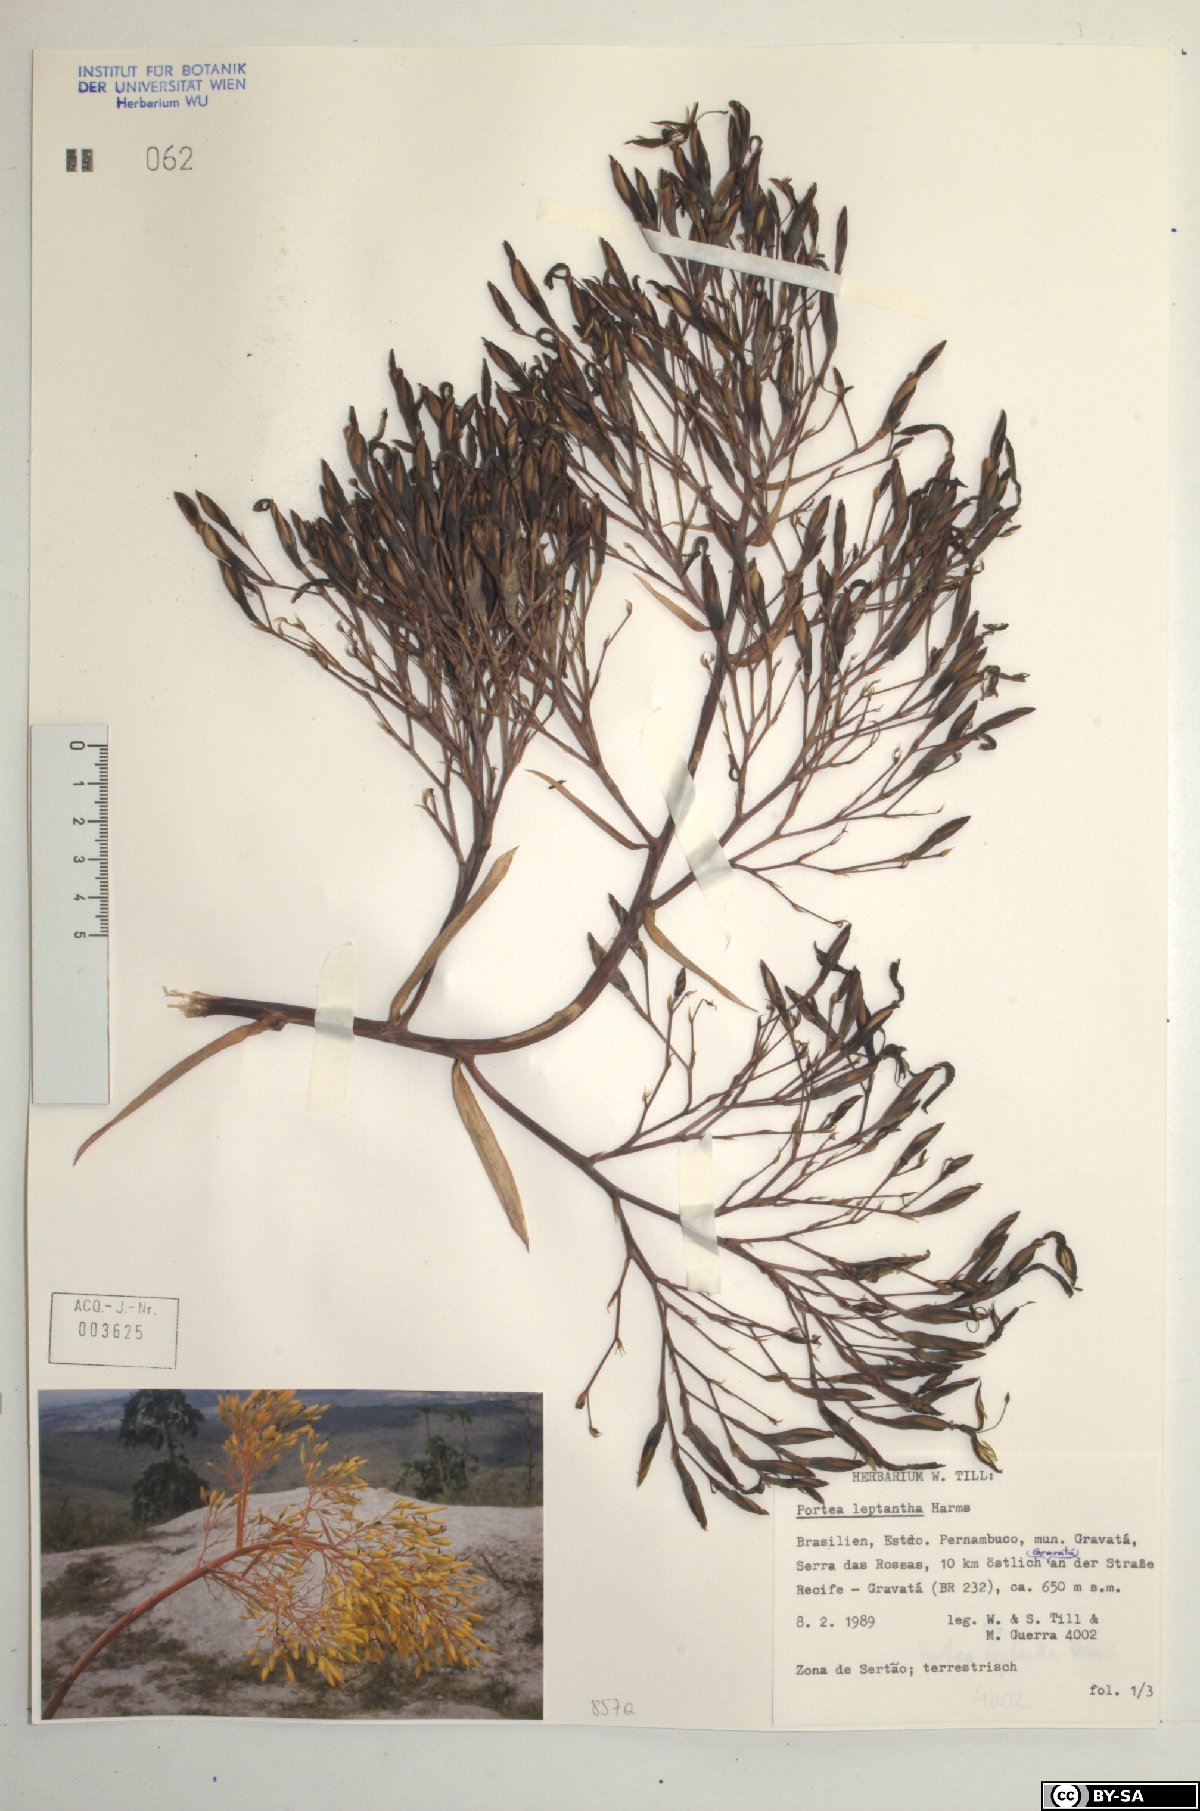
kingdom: Plantae
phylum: Tracheophyta
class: Liliopsida
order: Poales
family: Bromeliaceae
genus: Aechmea
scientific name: Aechmea leptantha
